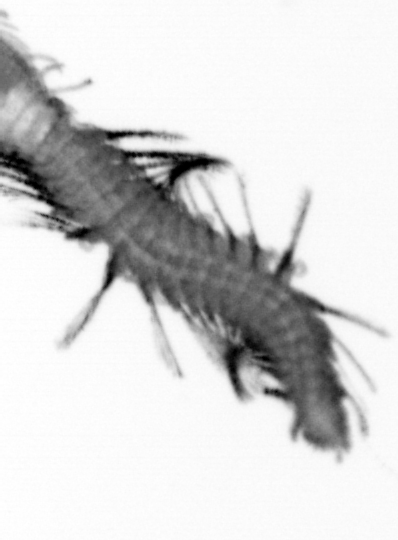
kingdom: Animalia
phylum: Annelida
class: Polychaeta
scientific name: Polychaeta
